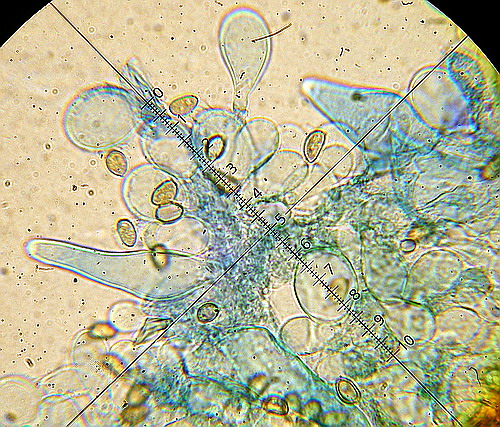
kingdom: Fungi
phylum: Basidiomycota
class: Agaricomycetes
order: Agaricales
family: Inocybaceae
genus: Inocybe
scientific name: Inocybe griseolilacina
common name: lillagrå trævlhat
